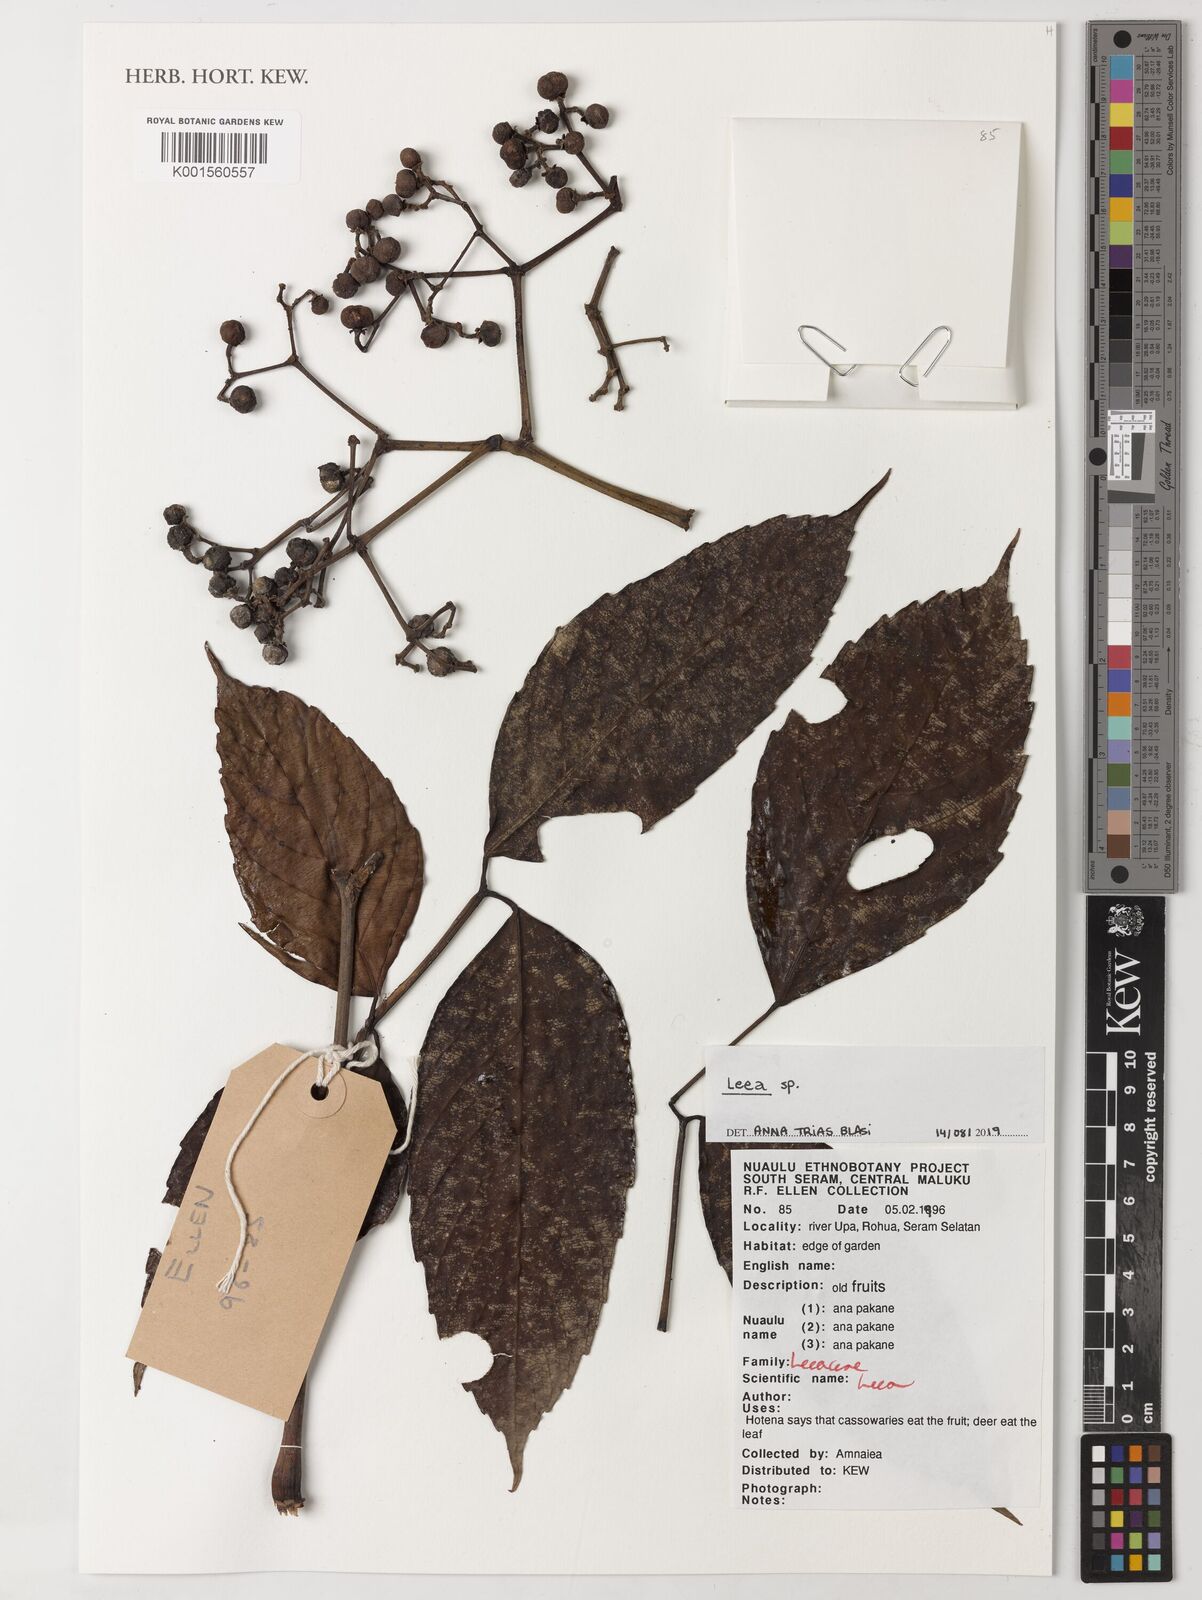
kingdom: Plantae
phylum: Tracheophyta
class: Magnoliopsida
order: Vitales
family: Vitaceae
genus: Leea
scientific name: Leea
